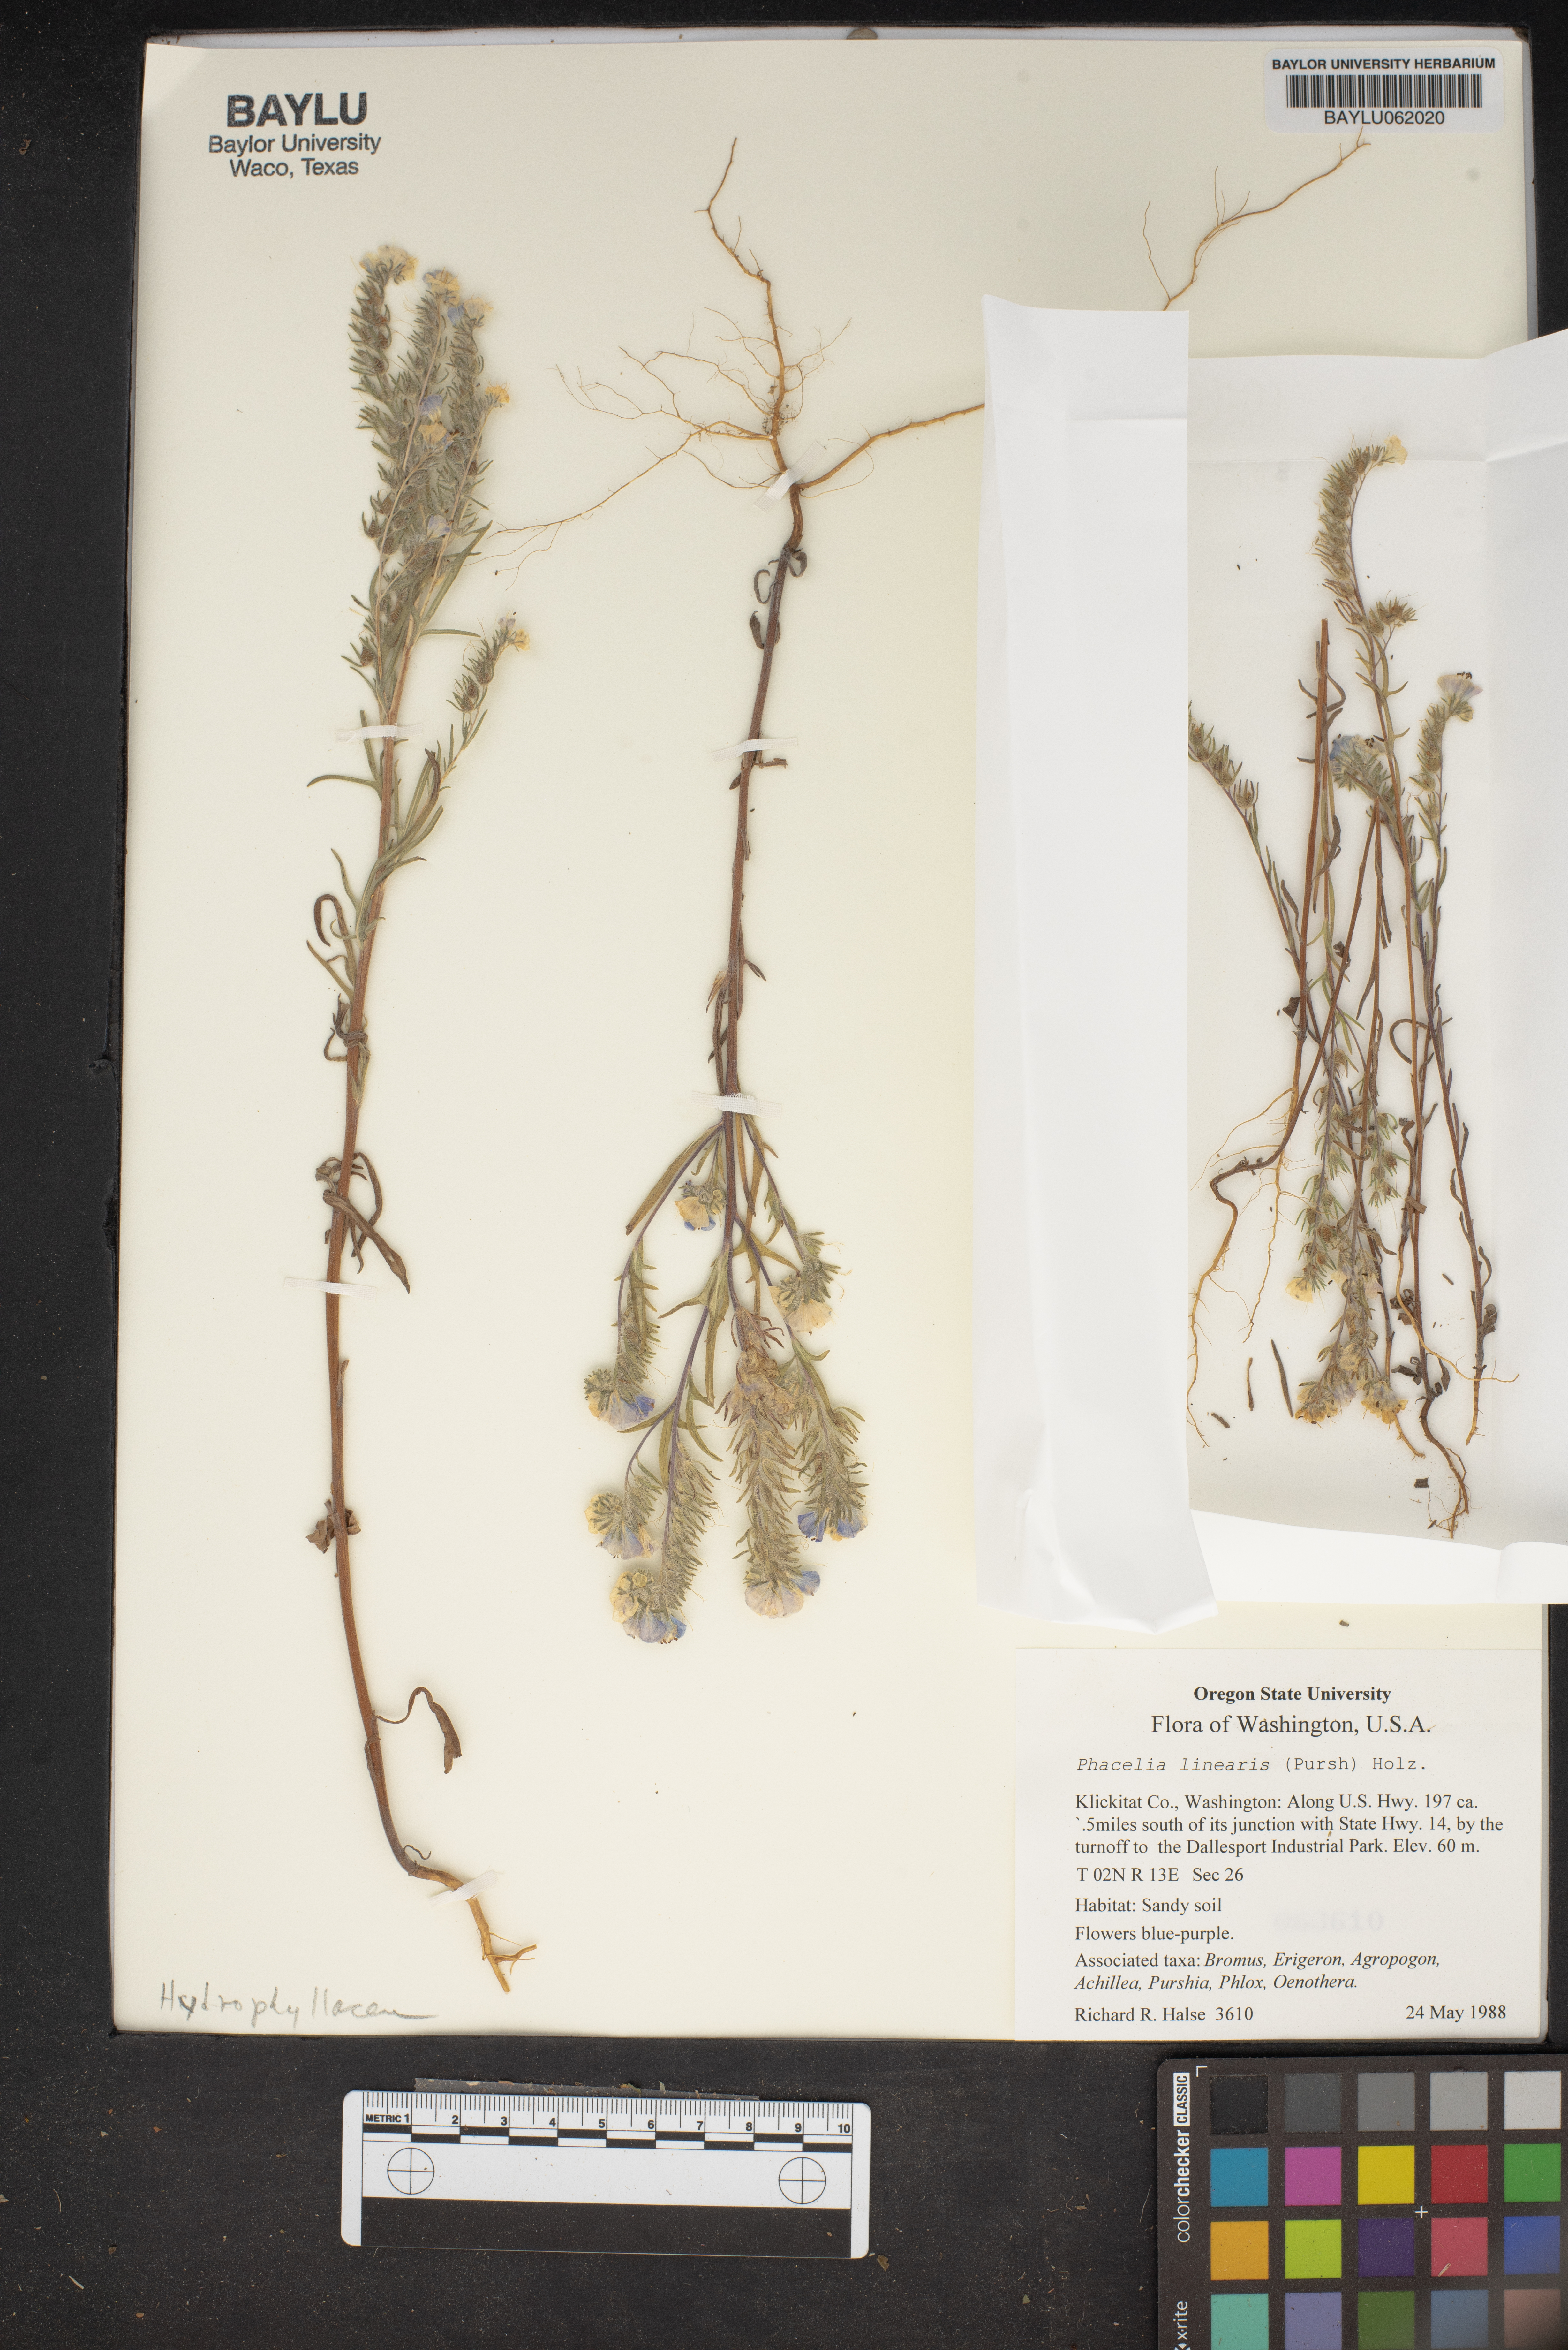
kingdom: Plantae
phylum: Tracheophyta
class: Magnoliopsida
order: Boraginales
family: Hydrophyllaceae
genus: Phacelia
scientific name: Phacelia linearis
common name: Linear-leaved phacelia
